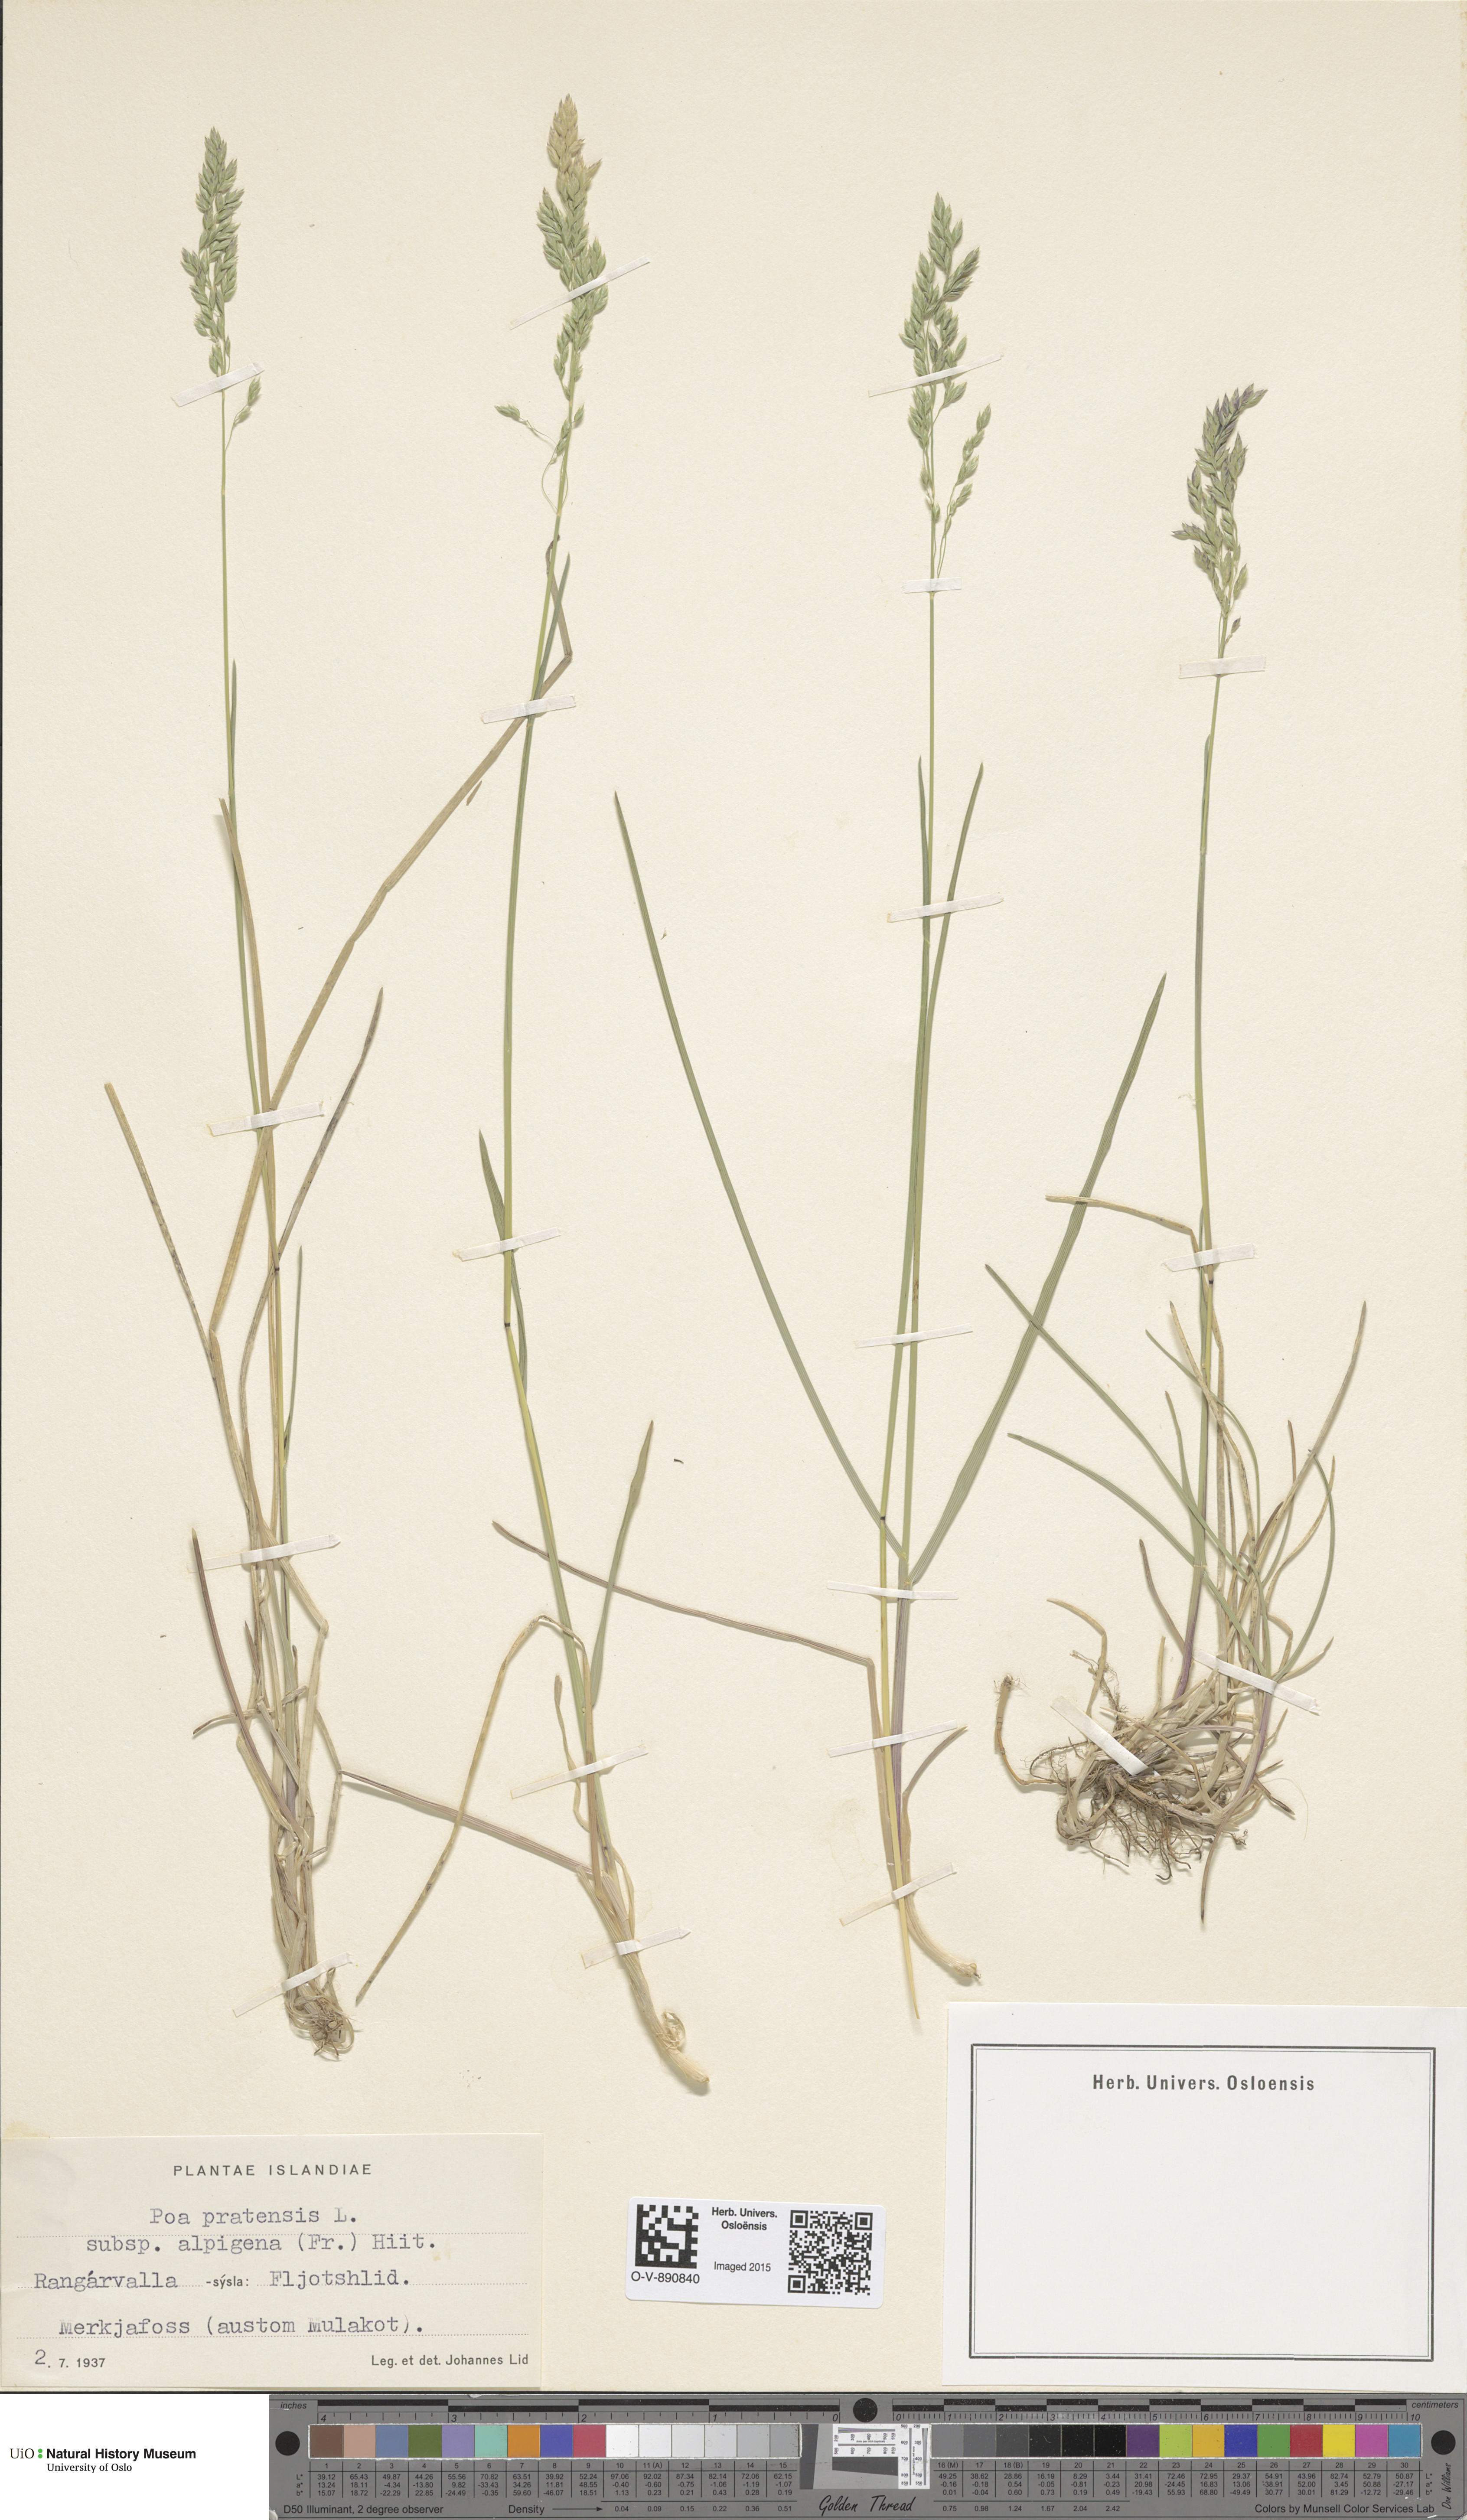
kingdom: Plantae
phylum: Tracheophyta
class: Liliopsida
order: Poales
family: Poaceae
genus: Poa
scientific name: Poa alpigena
